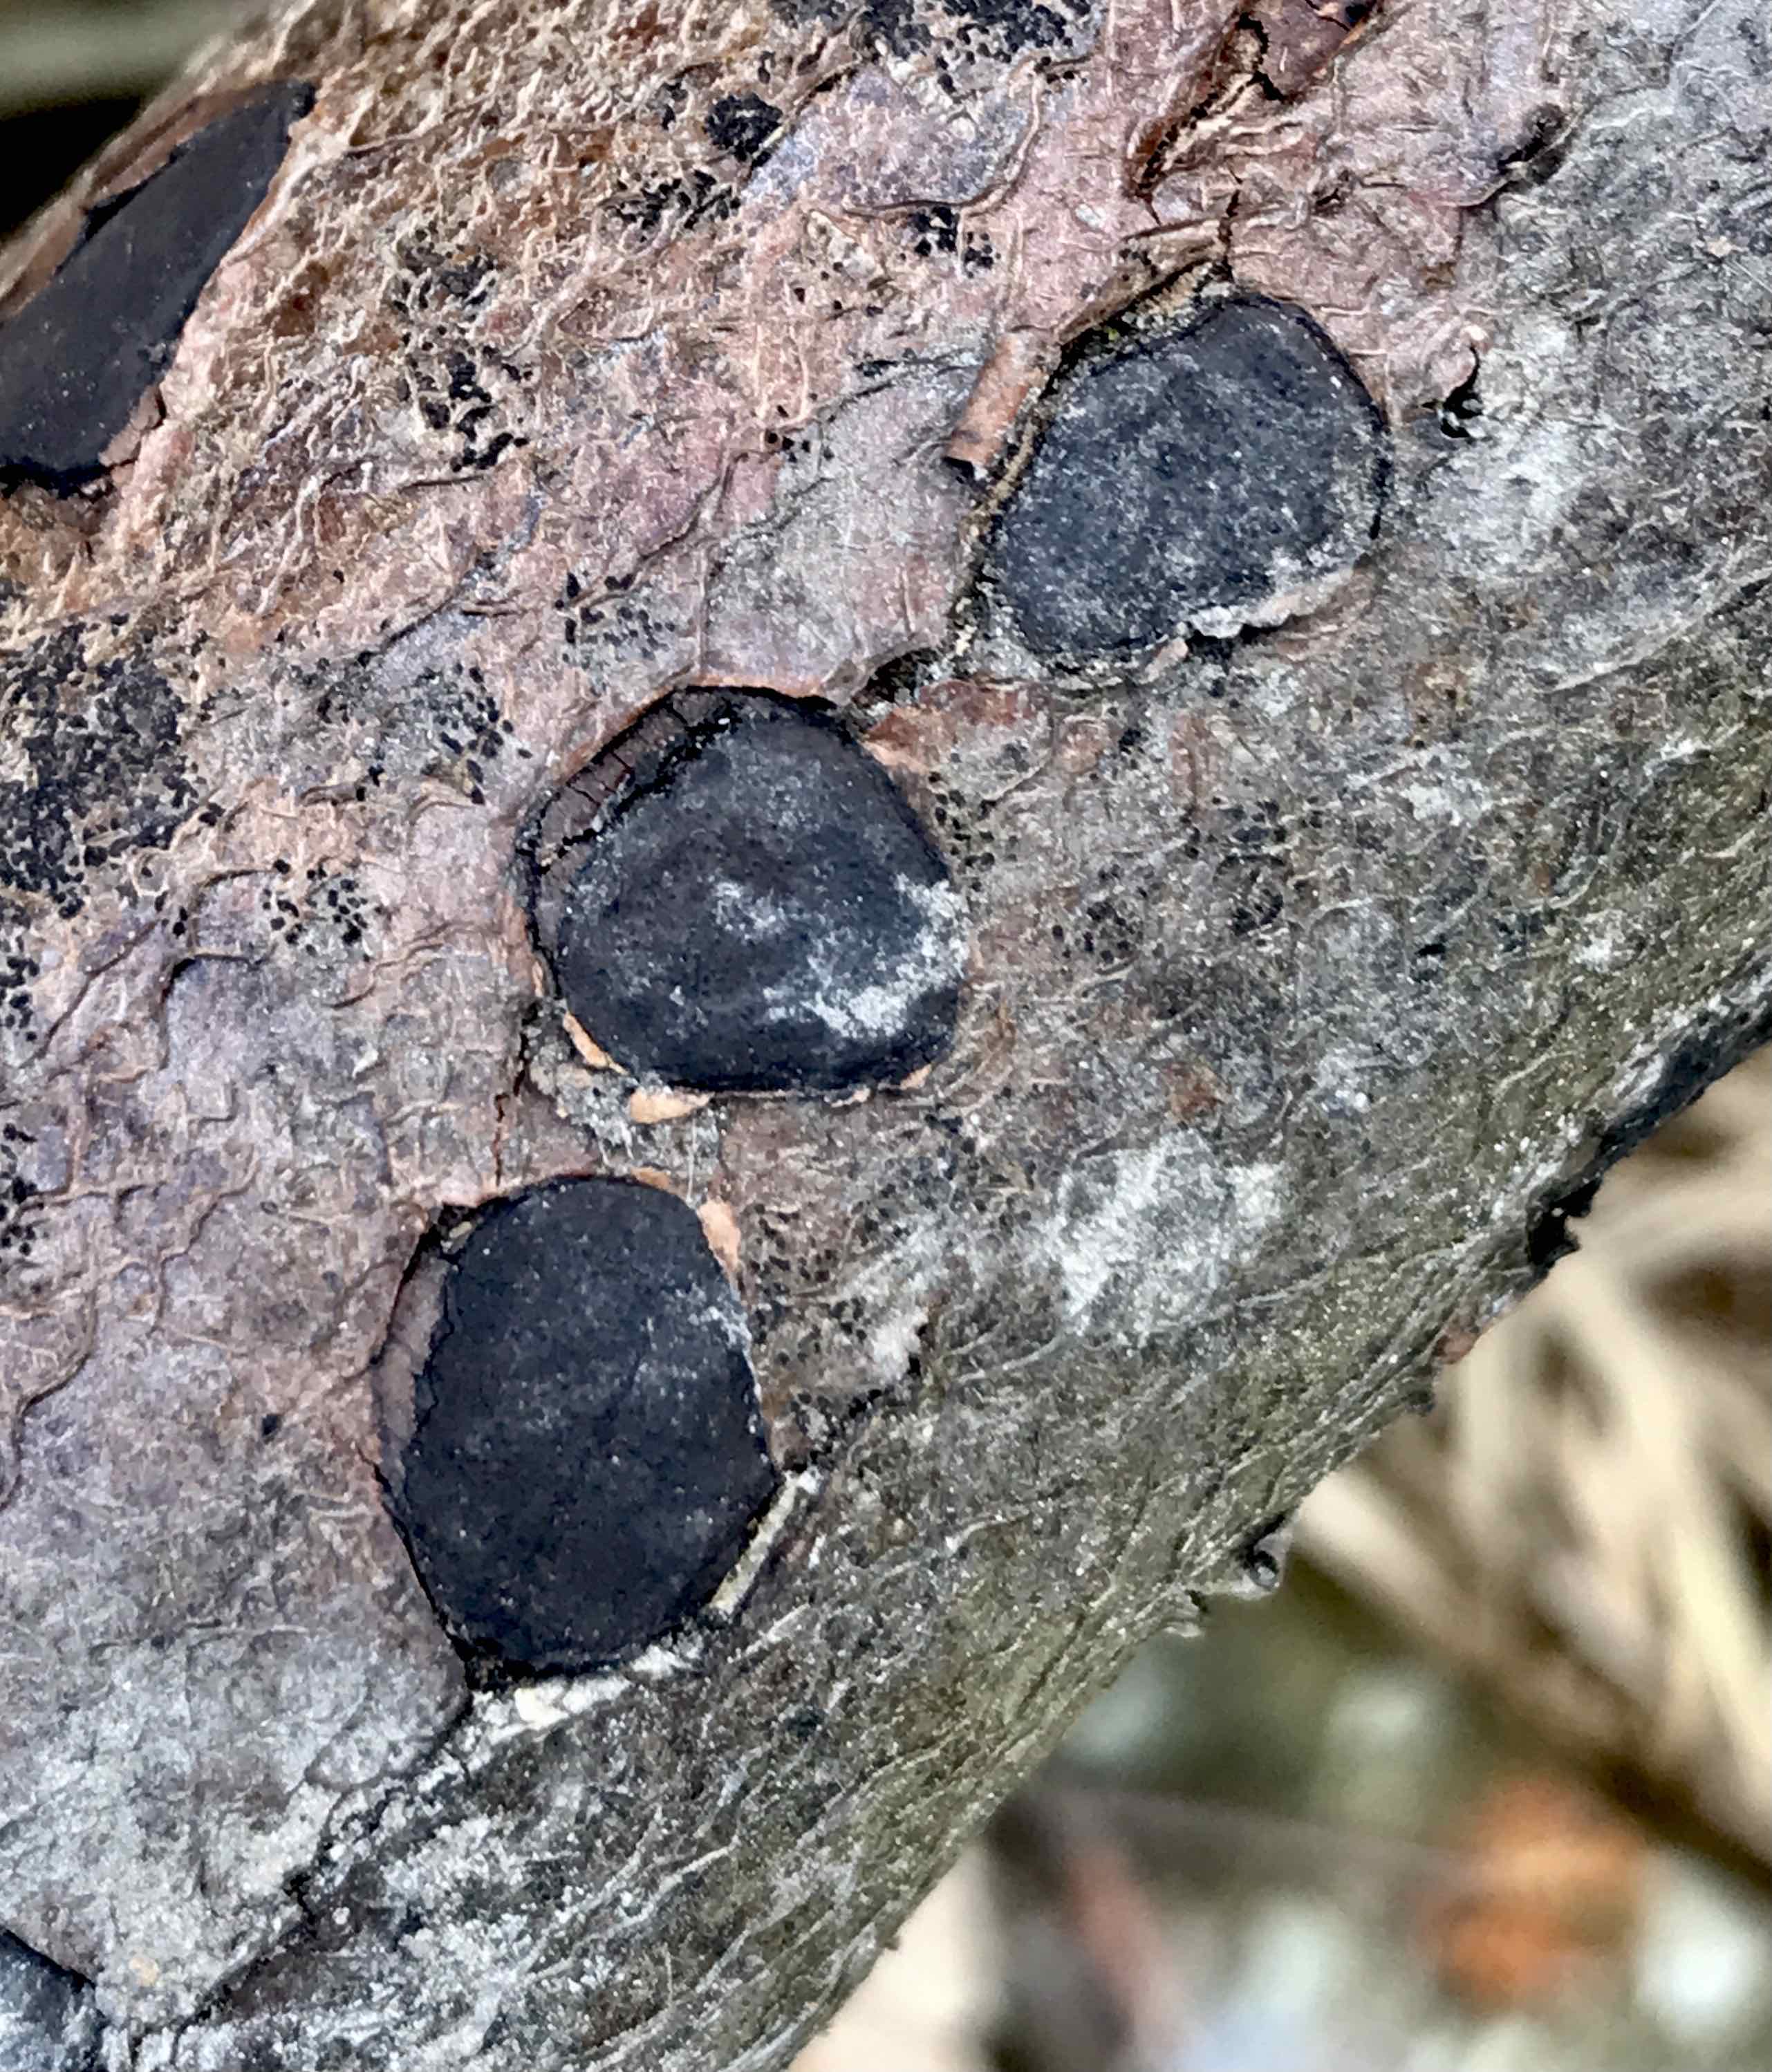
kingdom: Fungi
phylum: Ascomycota
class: Sordariomycetes
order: Xylariales
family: Graphostromataceae
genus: Biscogniauxia
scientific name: Biscogniauxia nummularia
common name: bøge-kulskive
